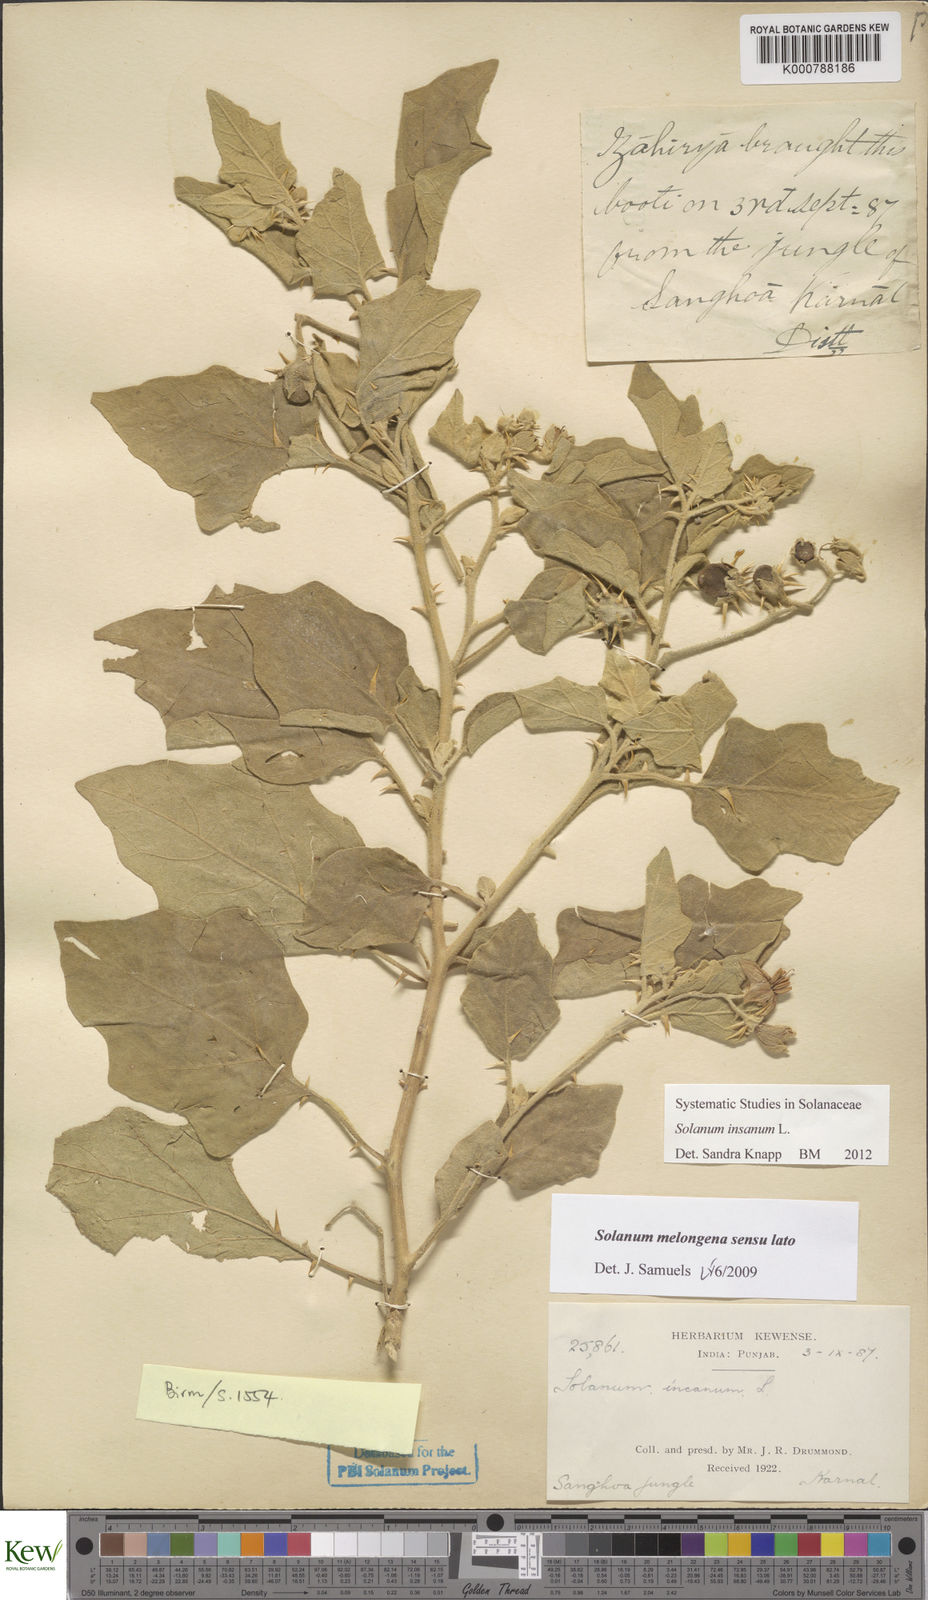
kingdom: Plantae
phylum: Tracheophyta
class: Magnoliopsida
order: Solanales
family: Solanaceae
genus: Solanum
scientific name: Solanum insanum
